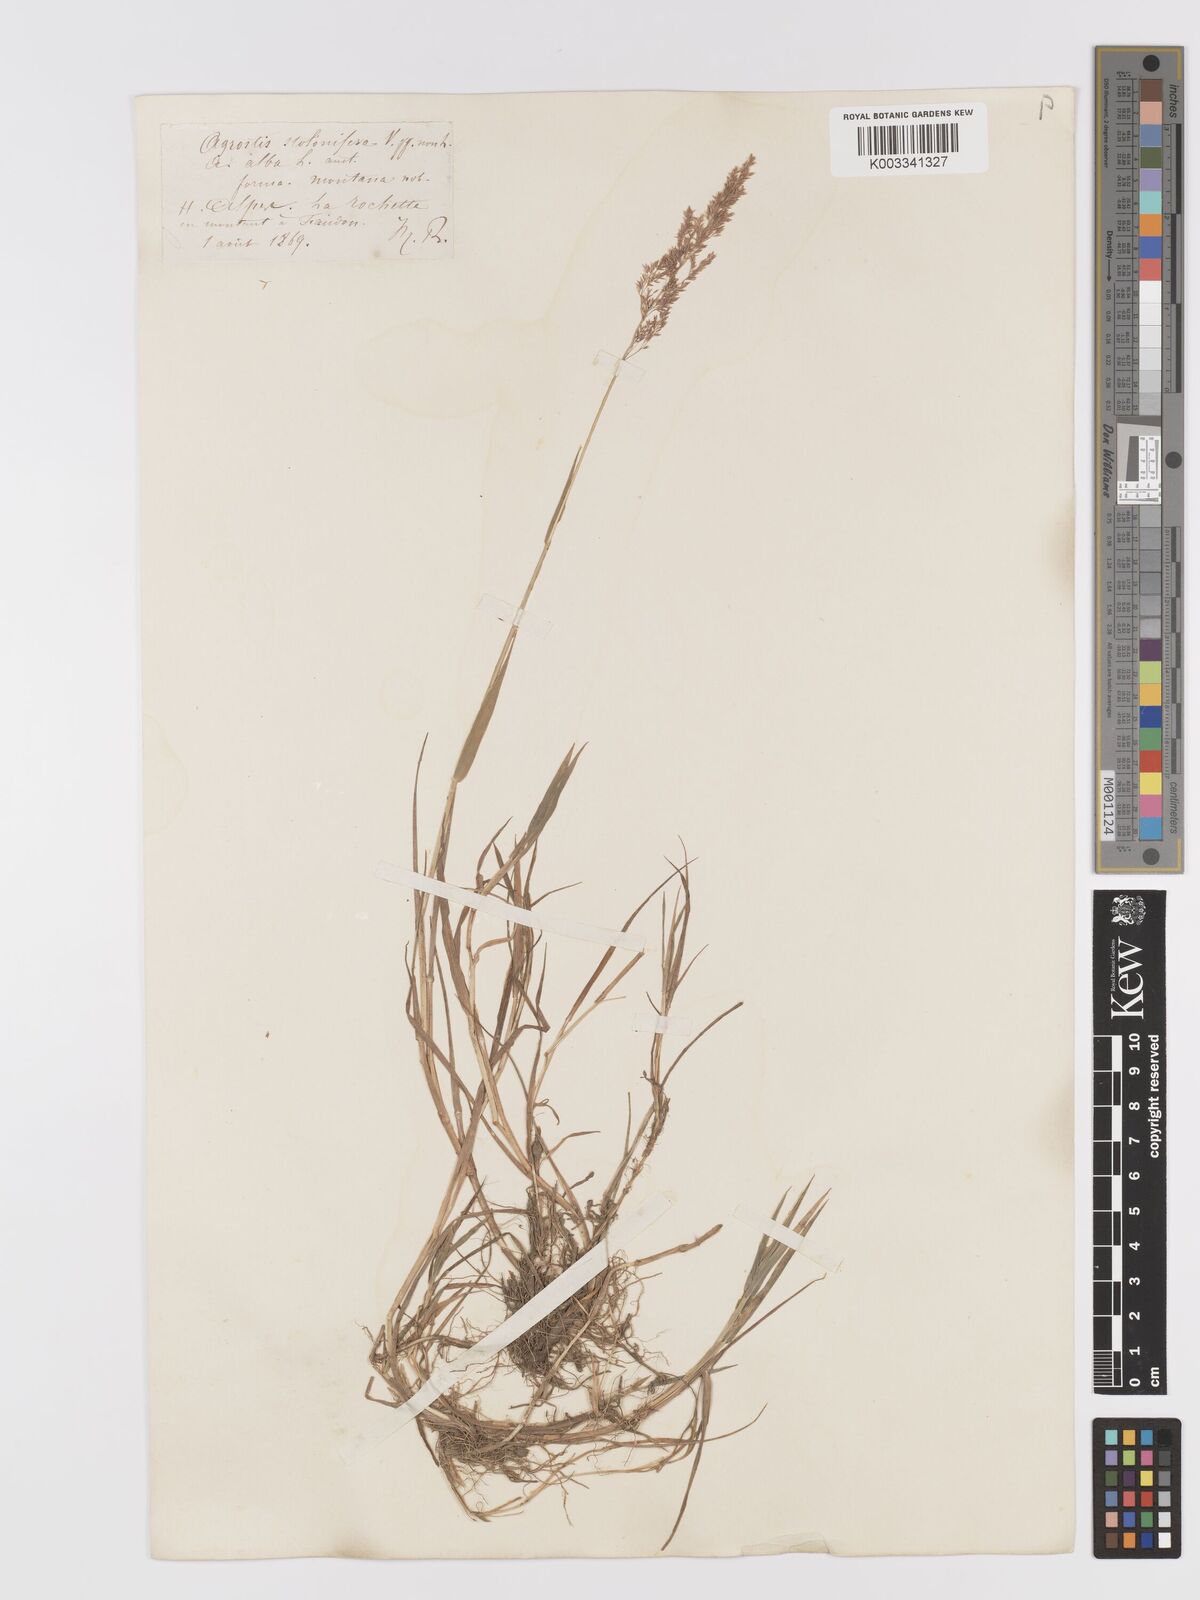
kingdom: Plantae
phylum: Tracheophyta
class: Liliopsida
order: Poales
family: Poaceae
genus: Agrostis
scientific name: Agrostis gigantea
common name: Black bent
